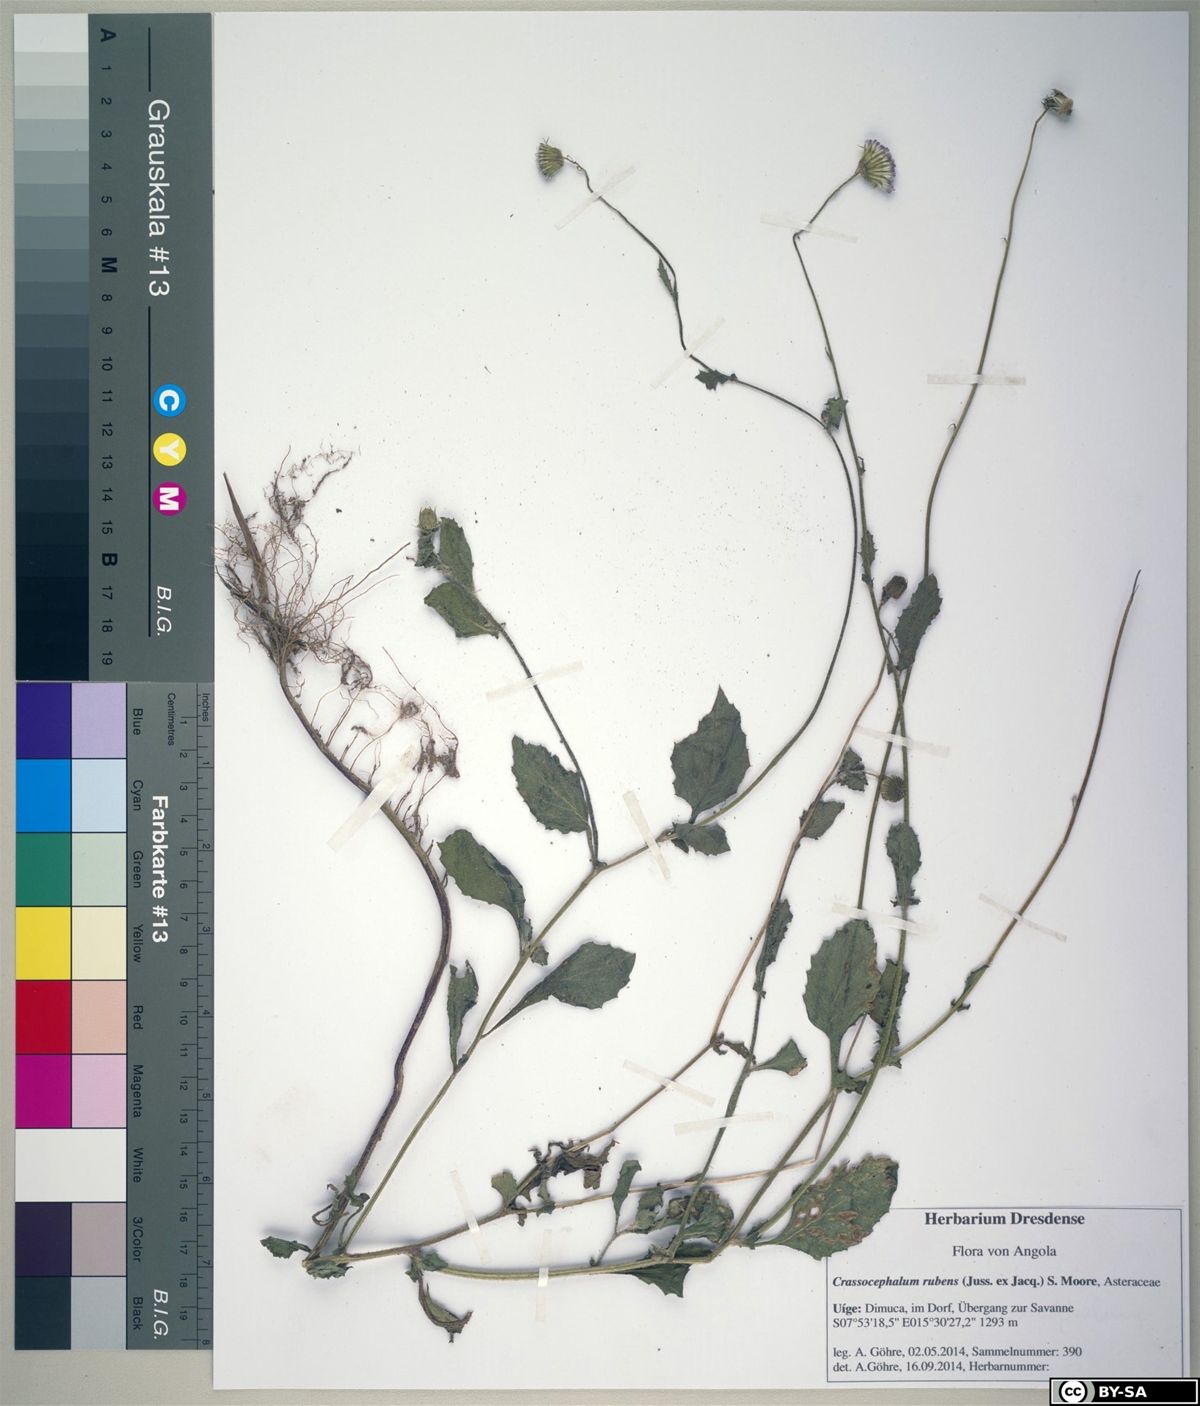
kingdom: Plantae
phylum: Tracheophyta
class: Magnoliopsida
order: Asterales
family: Asteraceae
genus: Crassocephalum
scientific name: Crassocephalum rubens
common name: Yoruban bologi
